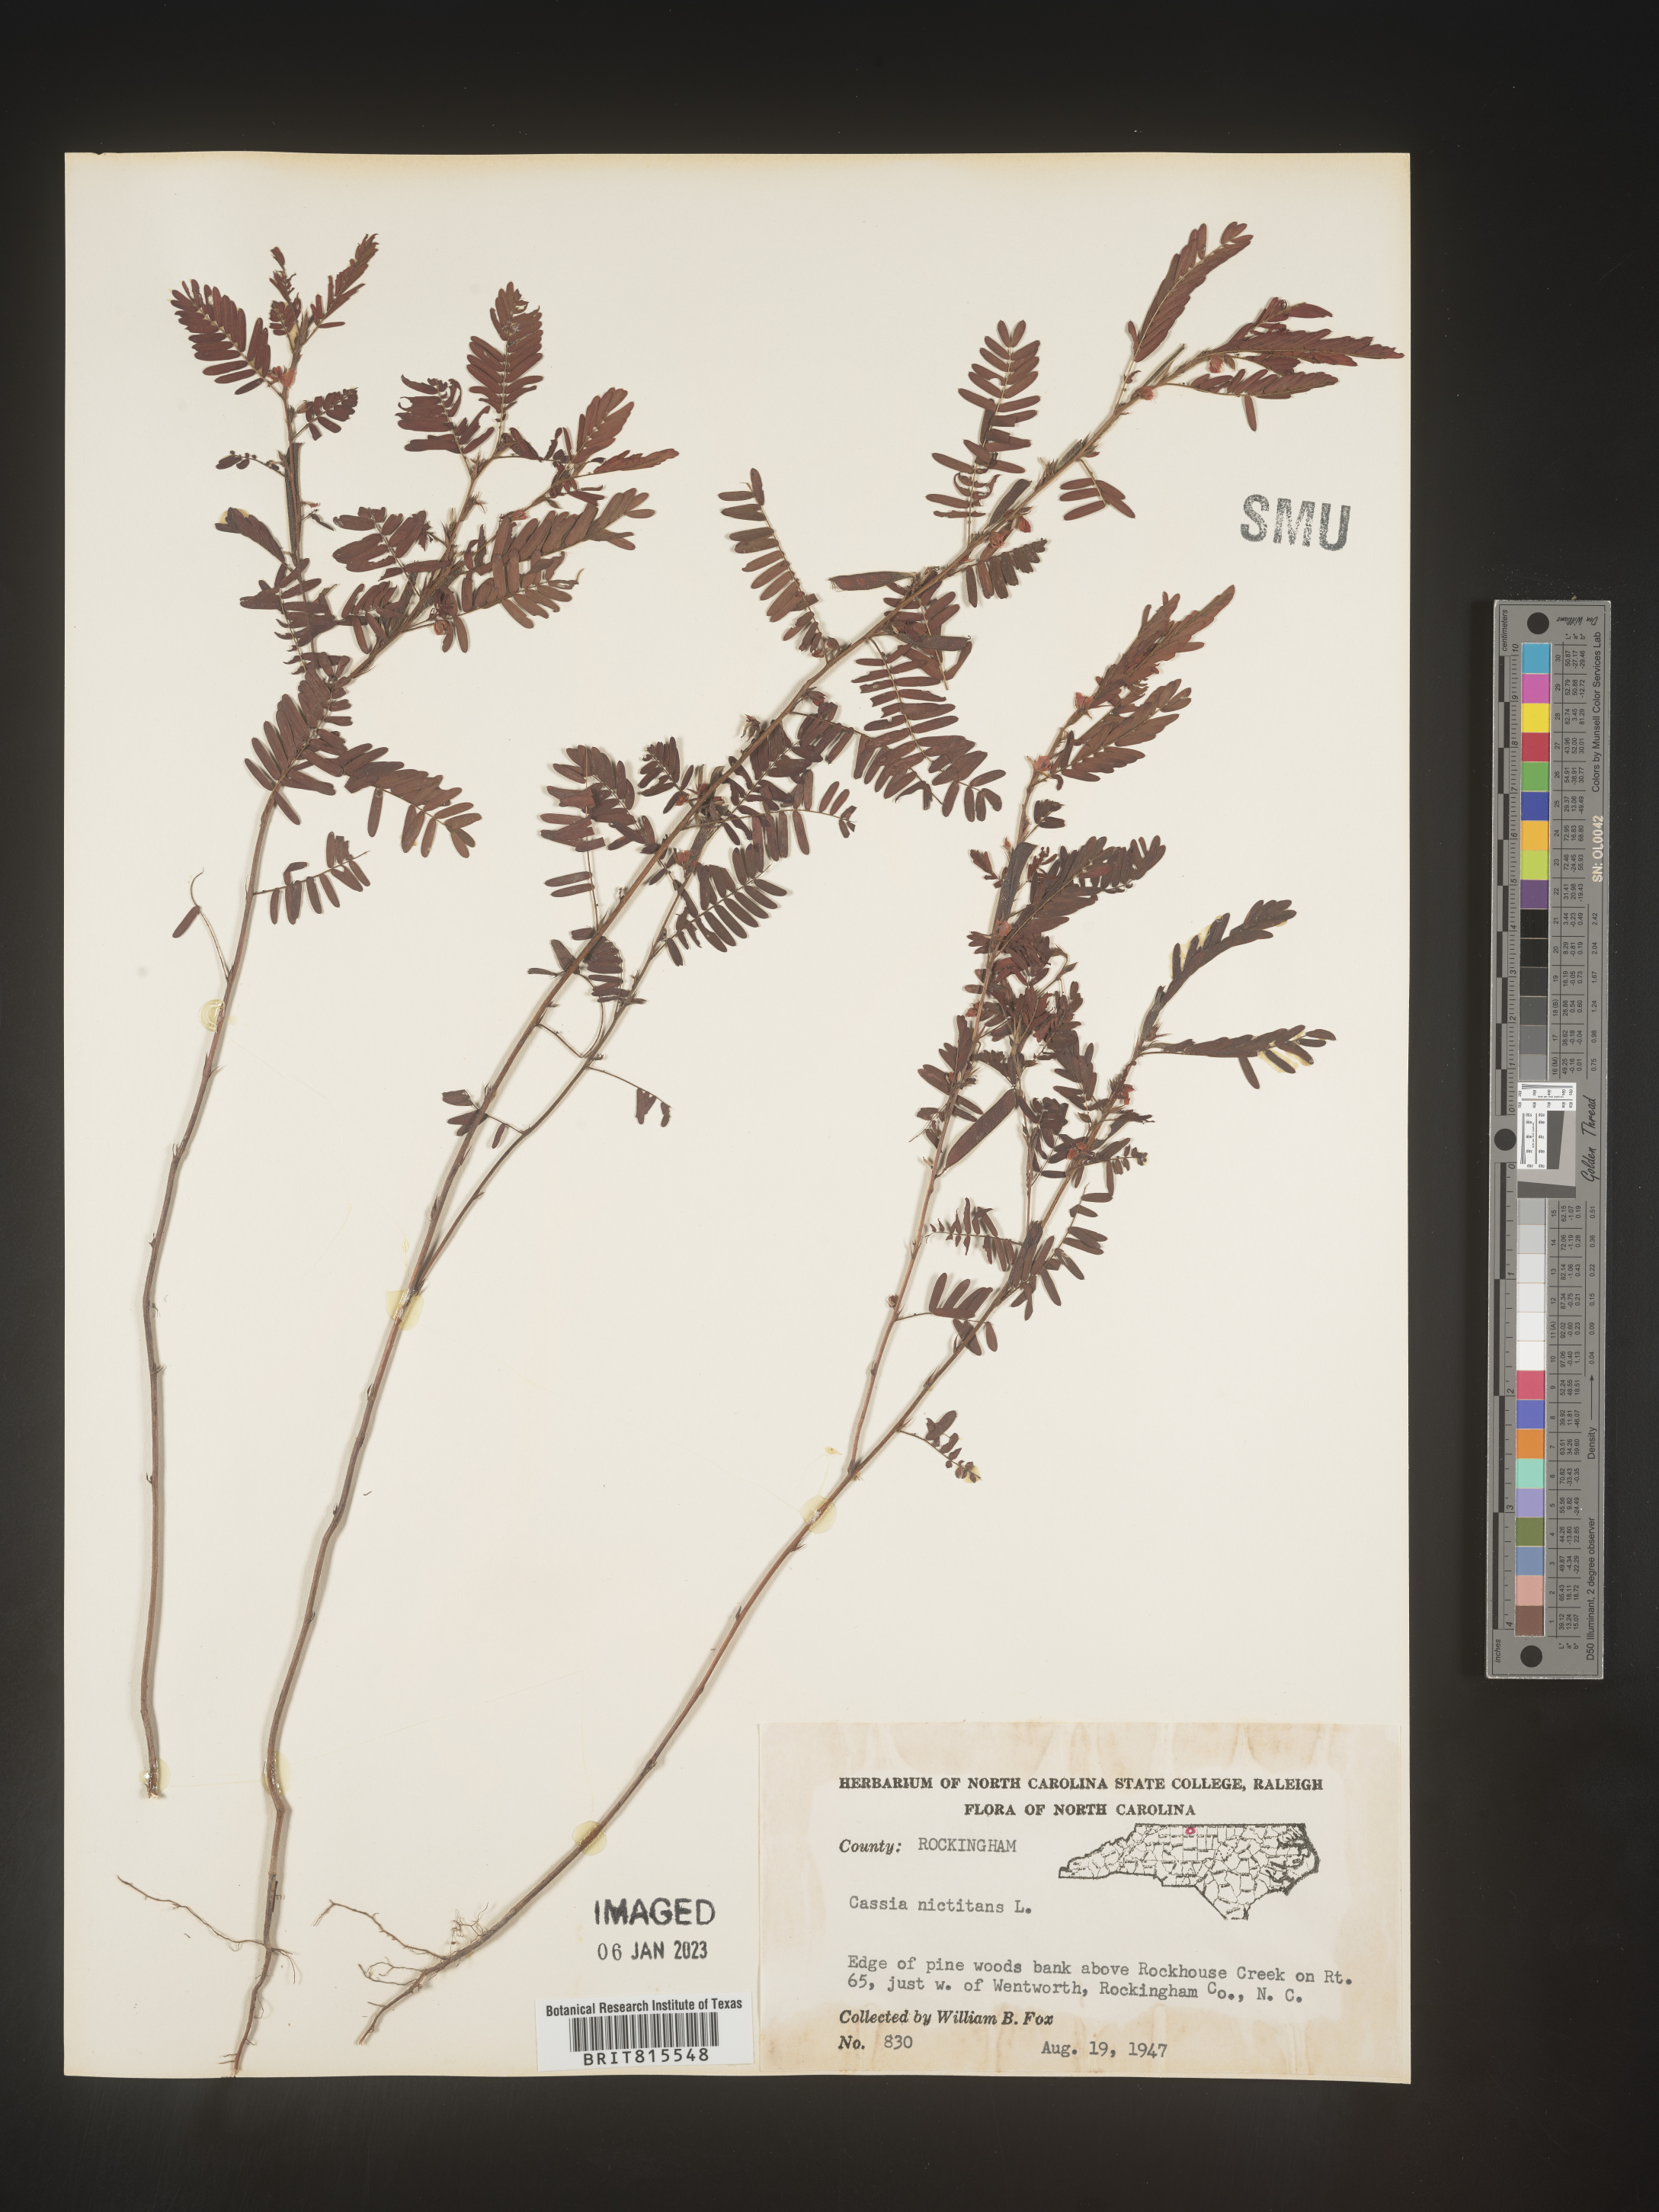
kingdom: Plantae
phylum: Tracheophyta
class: Magnoliopsida
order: Fabales
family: Fabaceae
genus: Chamaecrista
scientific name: Chamaecrista nictitans
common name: Sensitive cassia
